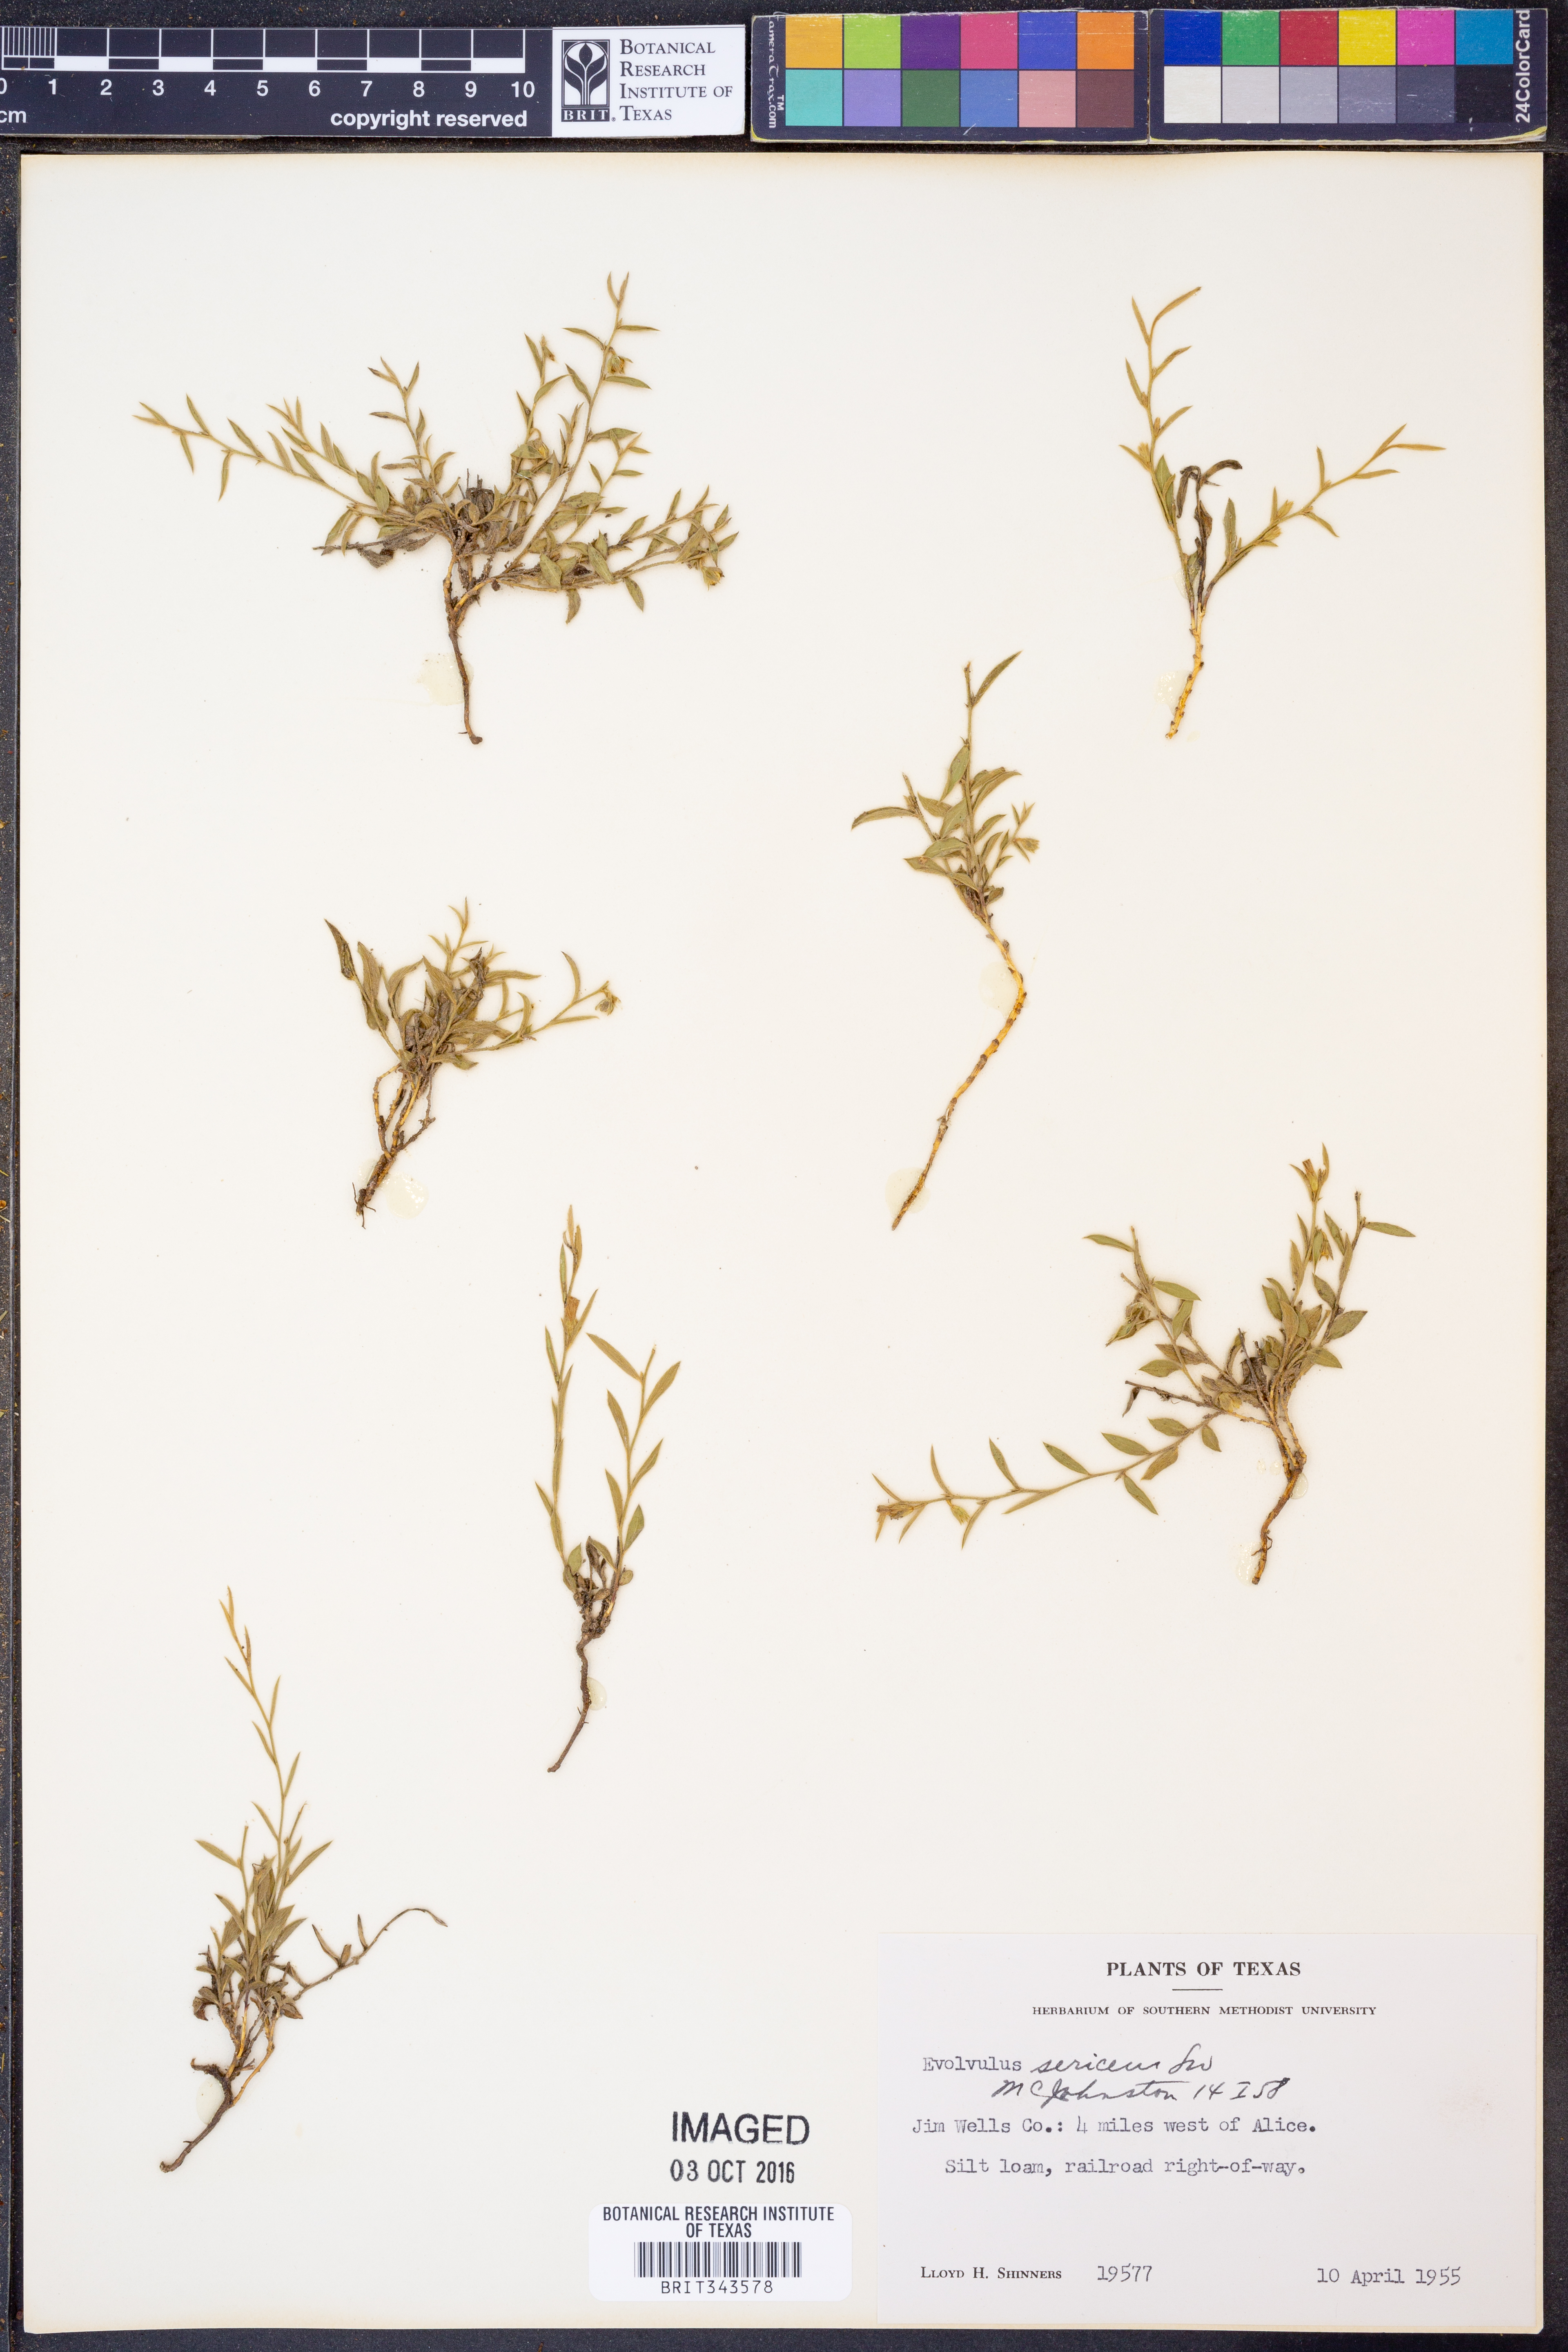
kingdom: Plantae
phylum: Tracheophyta
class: Magnoliopsida
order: Solanales
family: Convolvulaceae
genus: Evolvulus
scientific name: Evolvulus sericeus
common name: Blue dots
